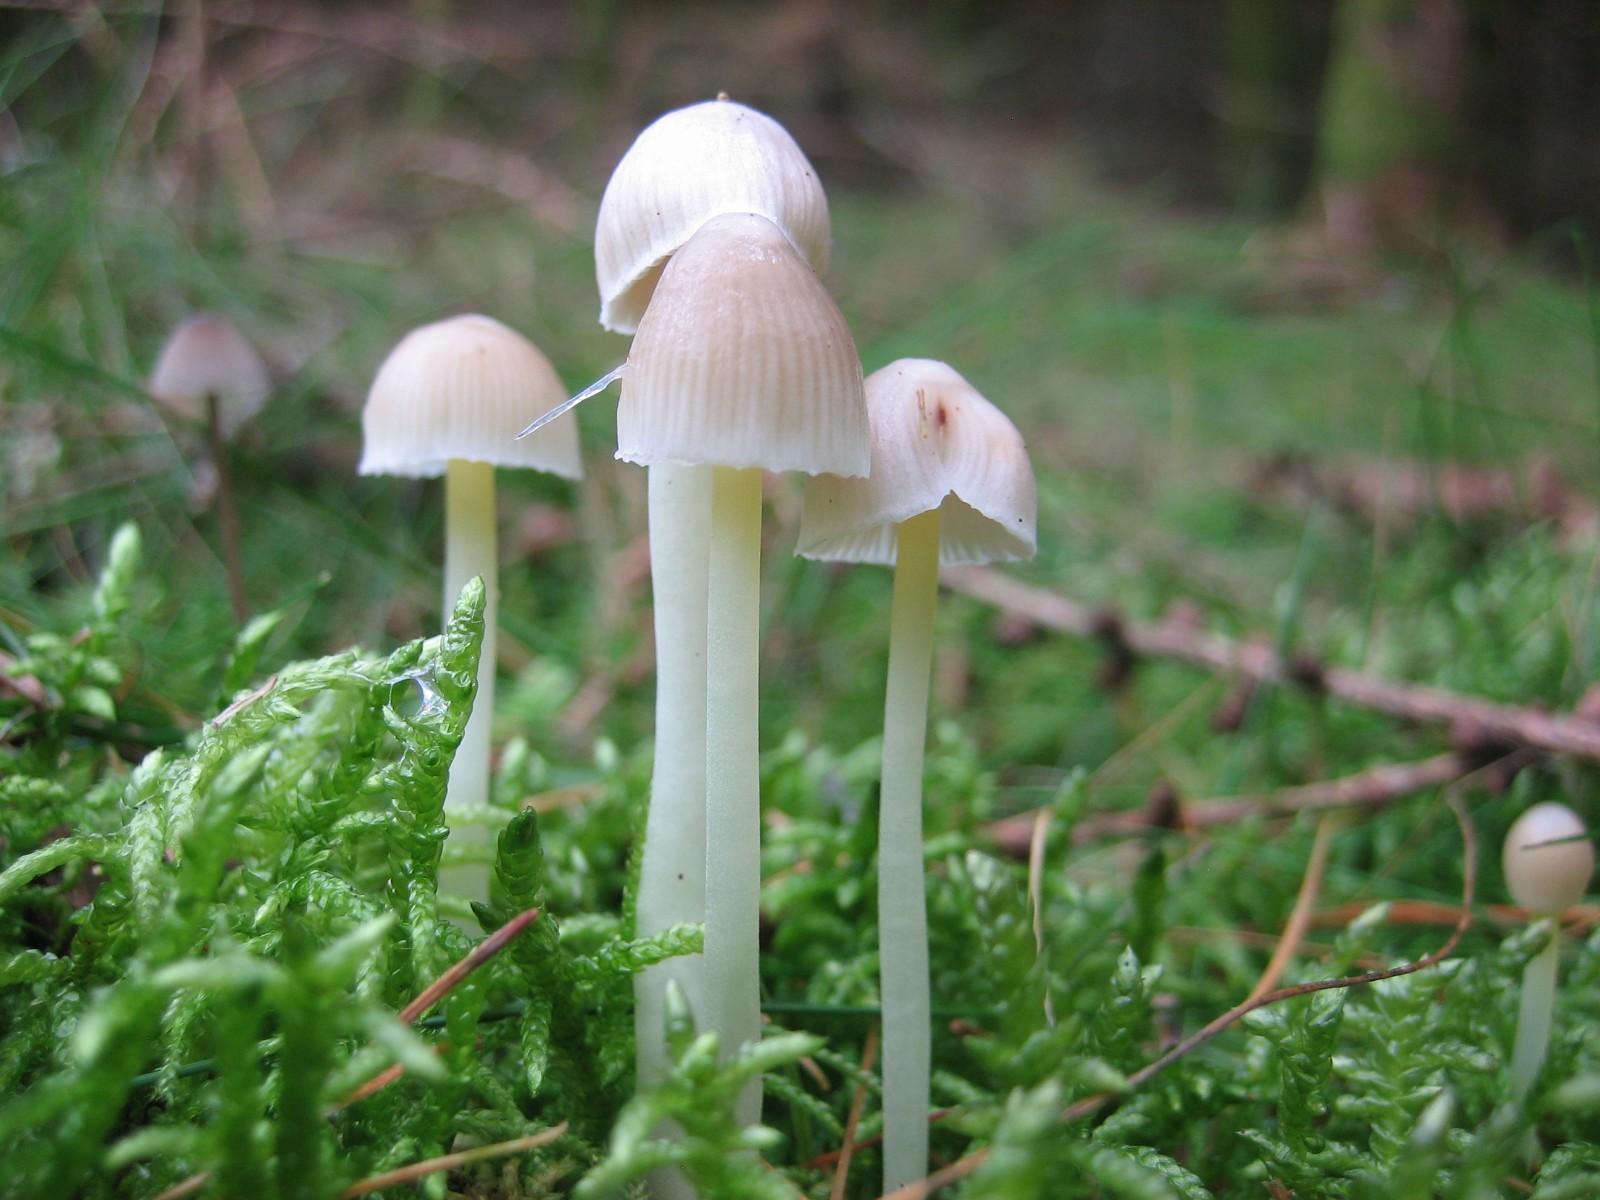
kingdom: Fungi
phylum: Basidiomycota
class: Agaricomycetes
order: Agaricales
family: Mycenaceae
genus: Mycena
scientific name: Mycena epipterygia
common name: gulstokket huesvamp
